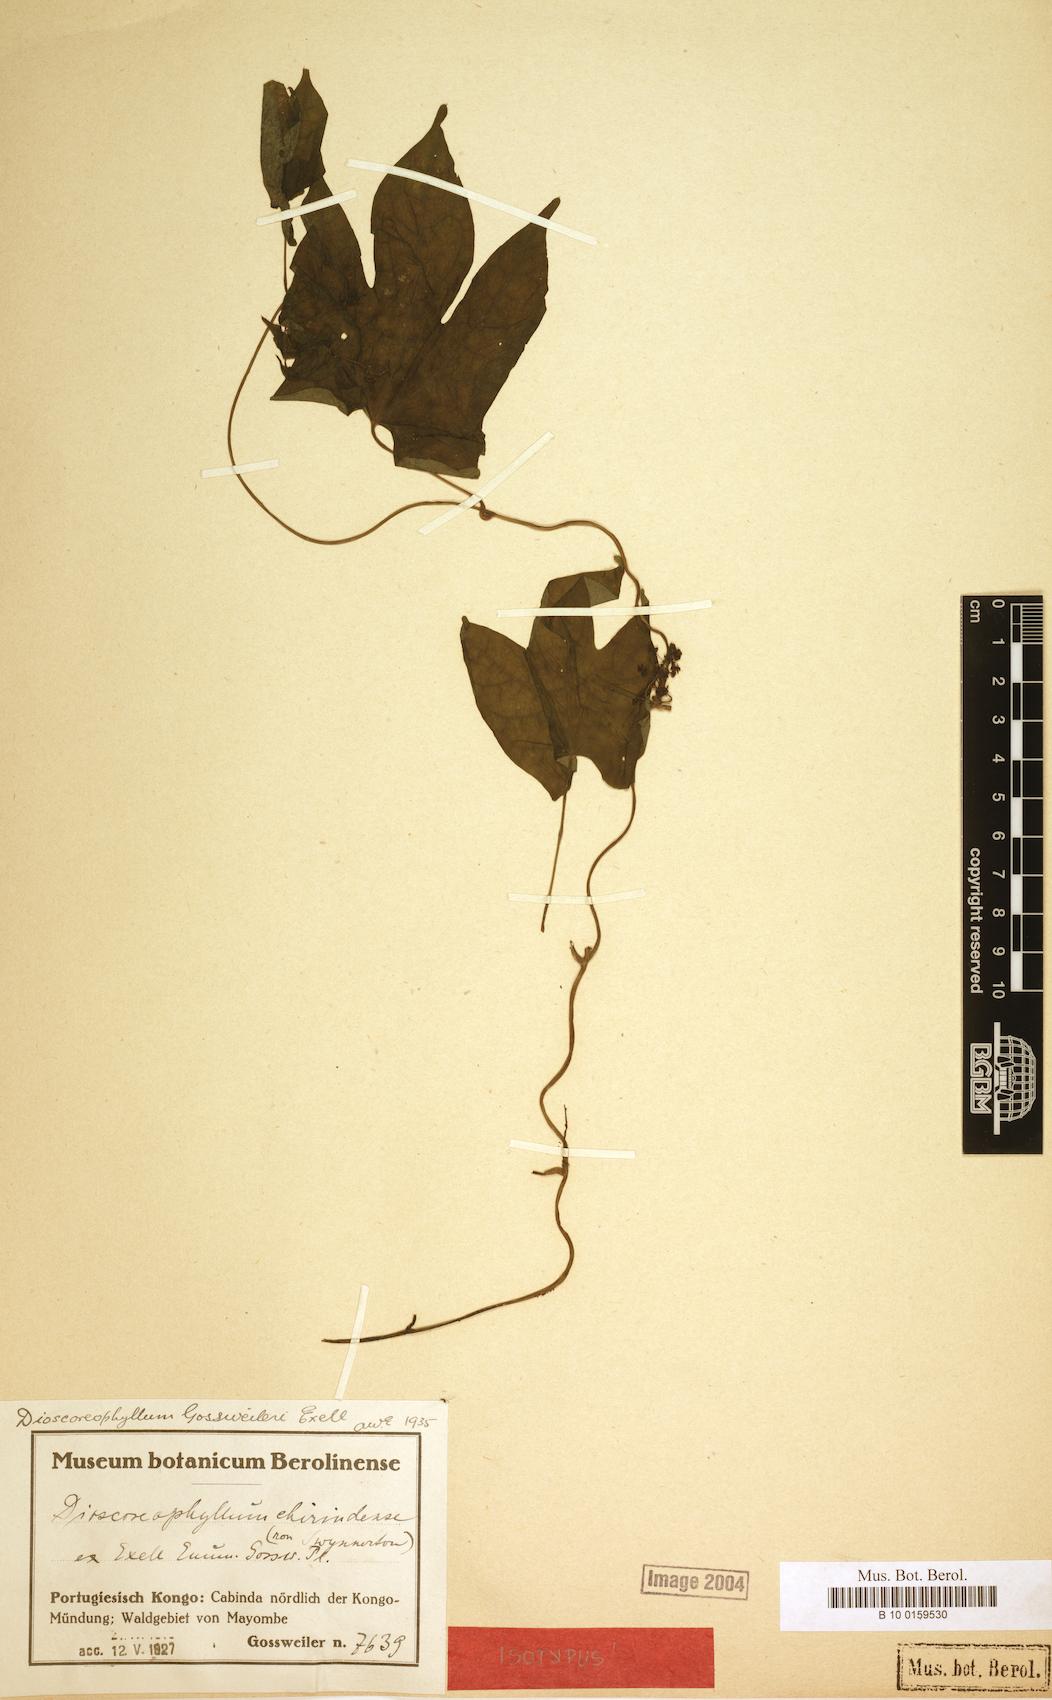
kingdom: Plantae
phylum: Tracheophyta
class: Magnoliopsida
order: Ranunculales
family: Menispermaceae
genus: Dioscoreophyllum
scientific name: Dioscoreophyllum gossweileri
